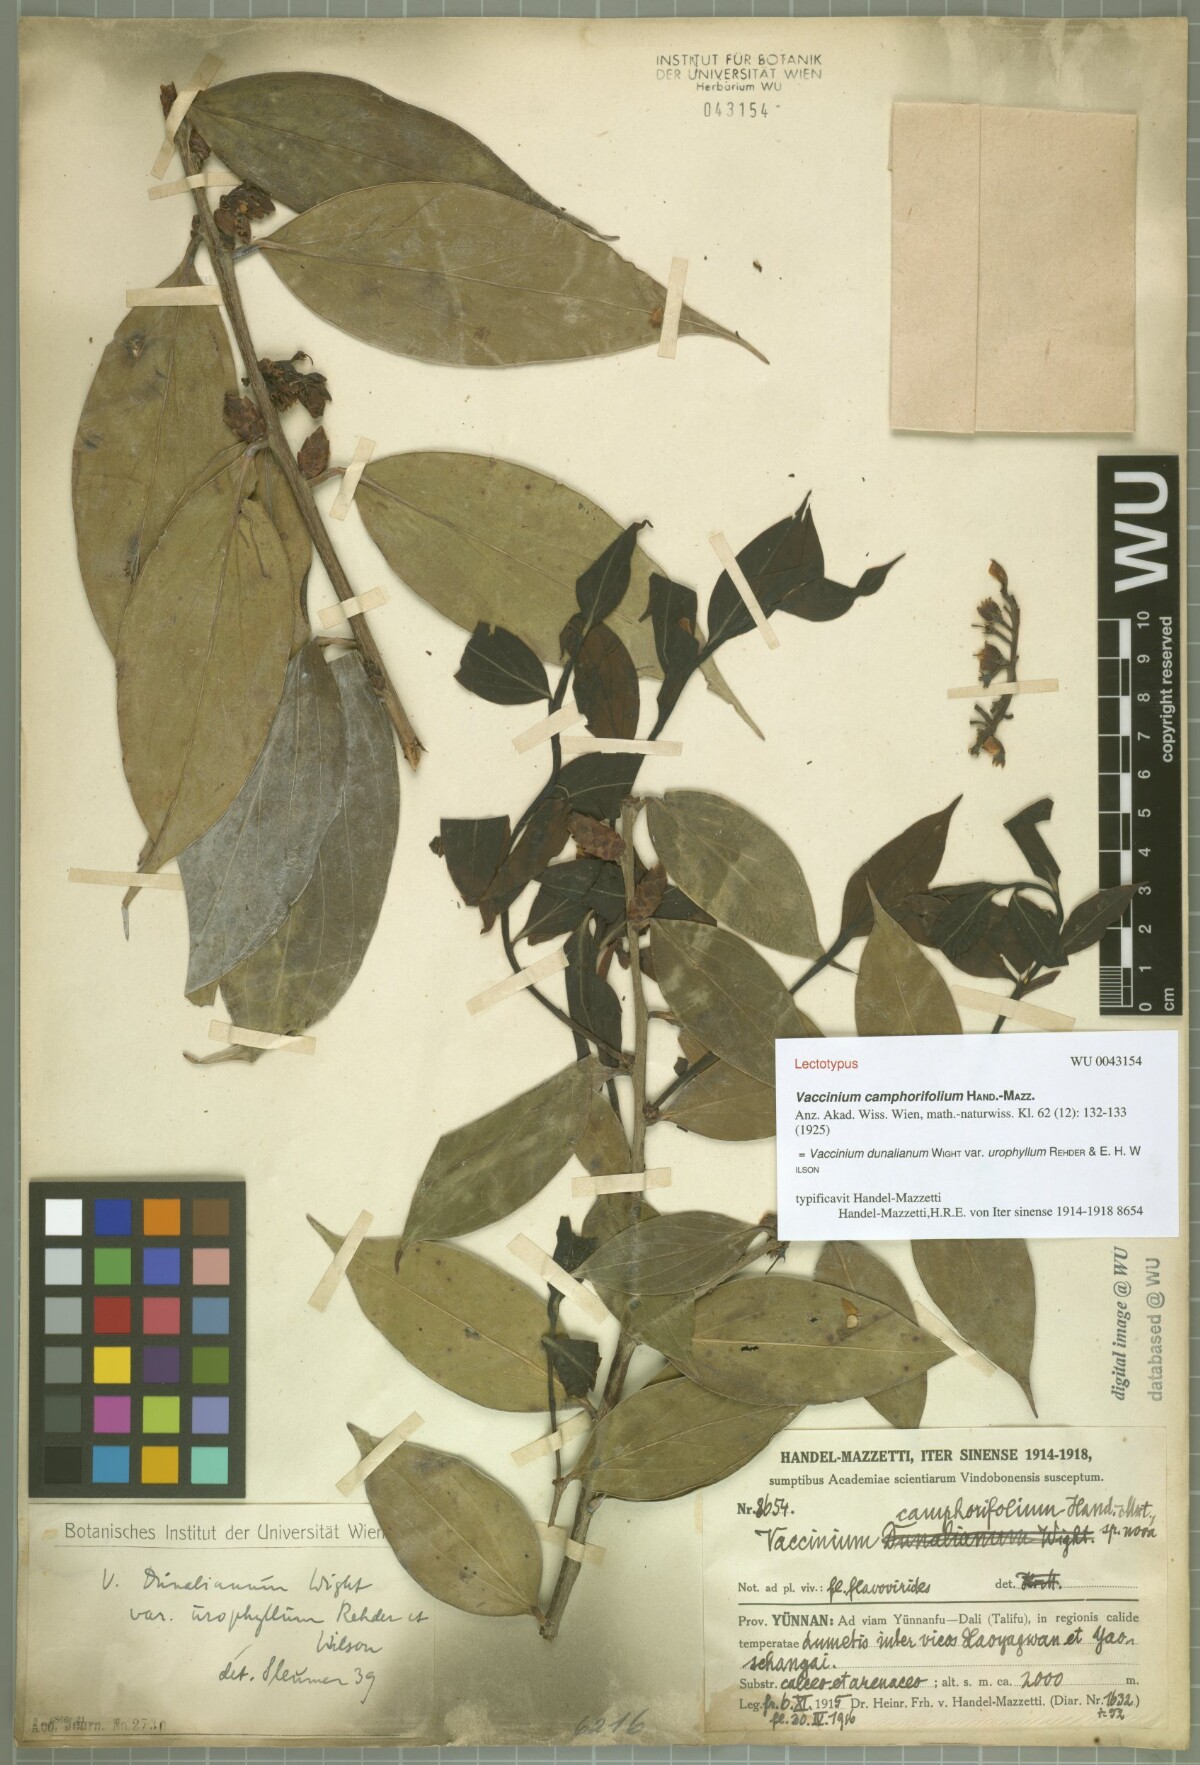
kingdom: Plantae
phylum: Tracheophyta
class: Magnoliopsida
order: Ericales
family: Ericaceae
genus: Vaccinium
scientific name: Vaccinium dunalianum
